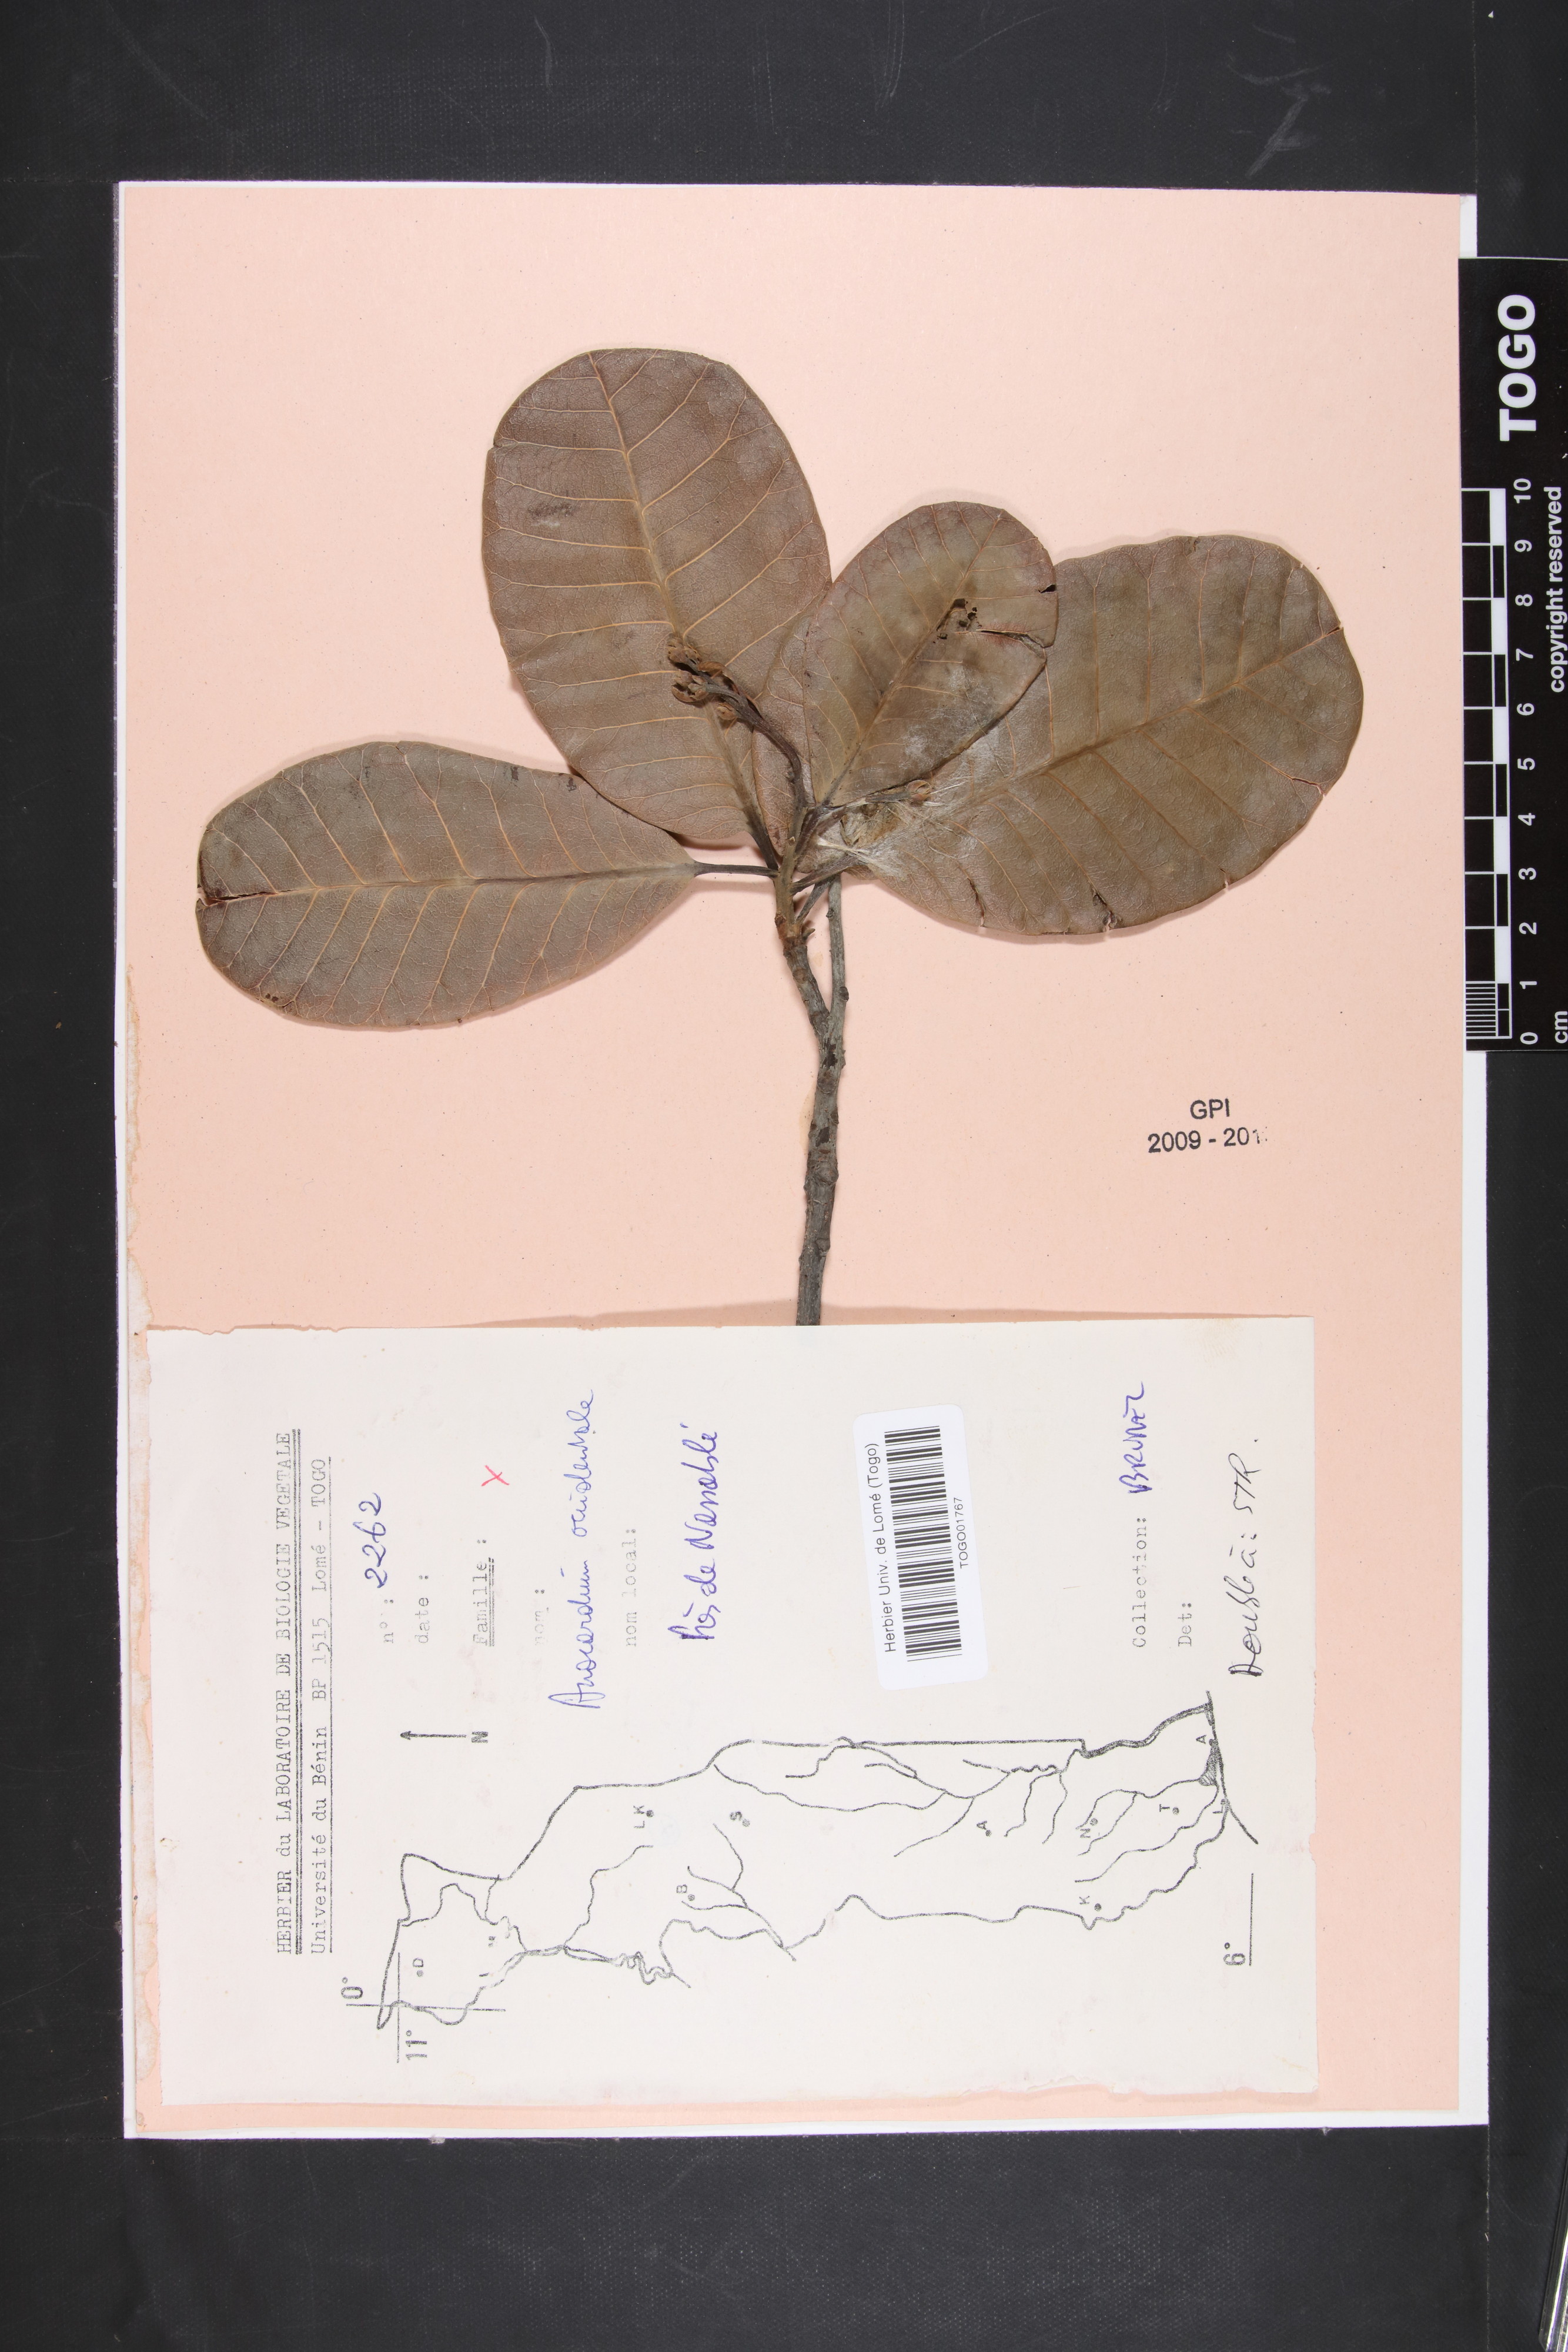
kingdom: Plantae
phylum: Tracheophyta
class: Magnoliopsida
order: Sapindales
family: Anacardiaceae
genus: Anacardium
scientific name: Anacardium occidentale
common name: Cashew
